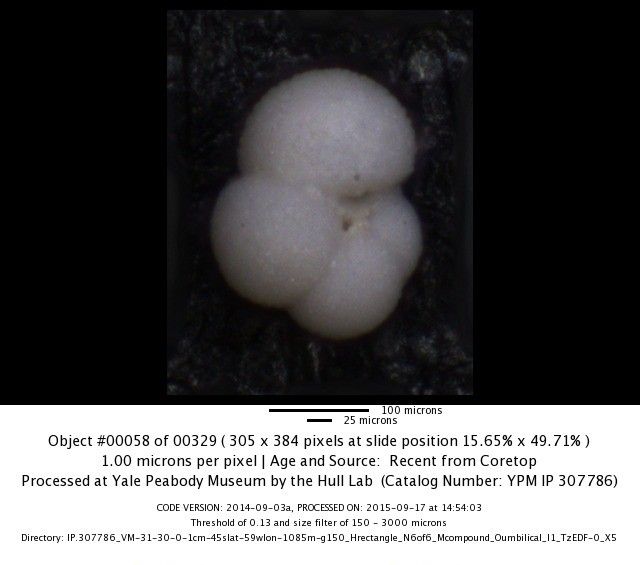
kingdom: Chromista
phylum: Foraminifera
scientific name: Foraminifera
